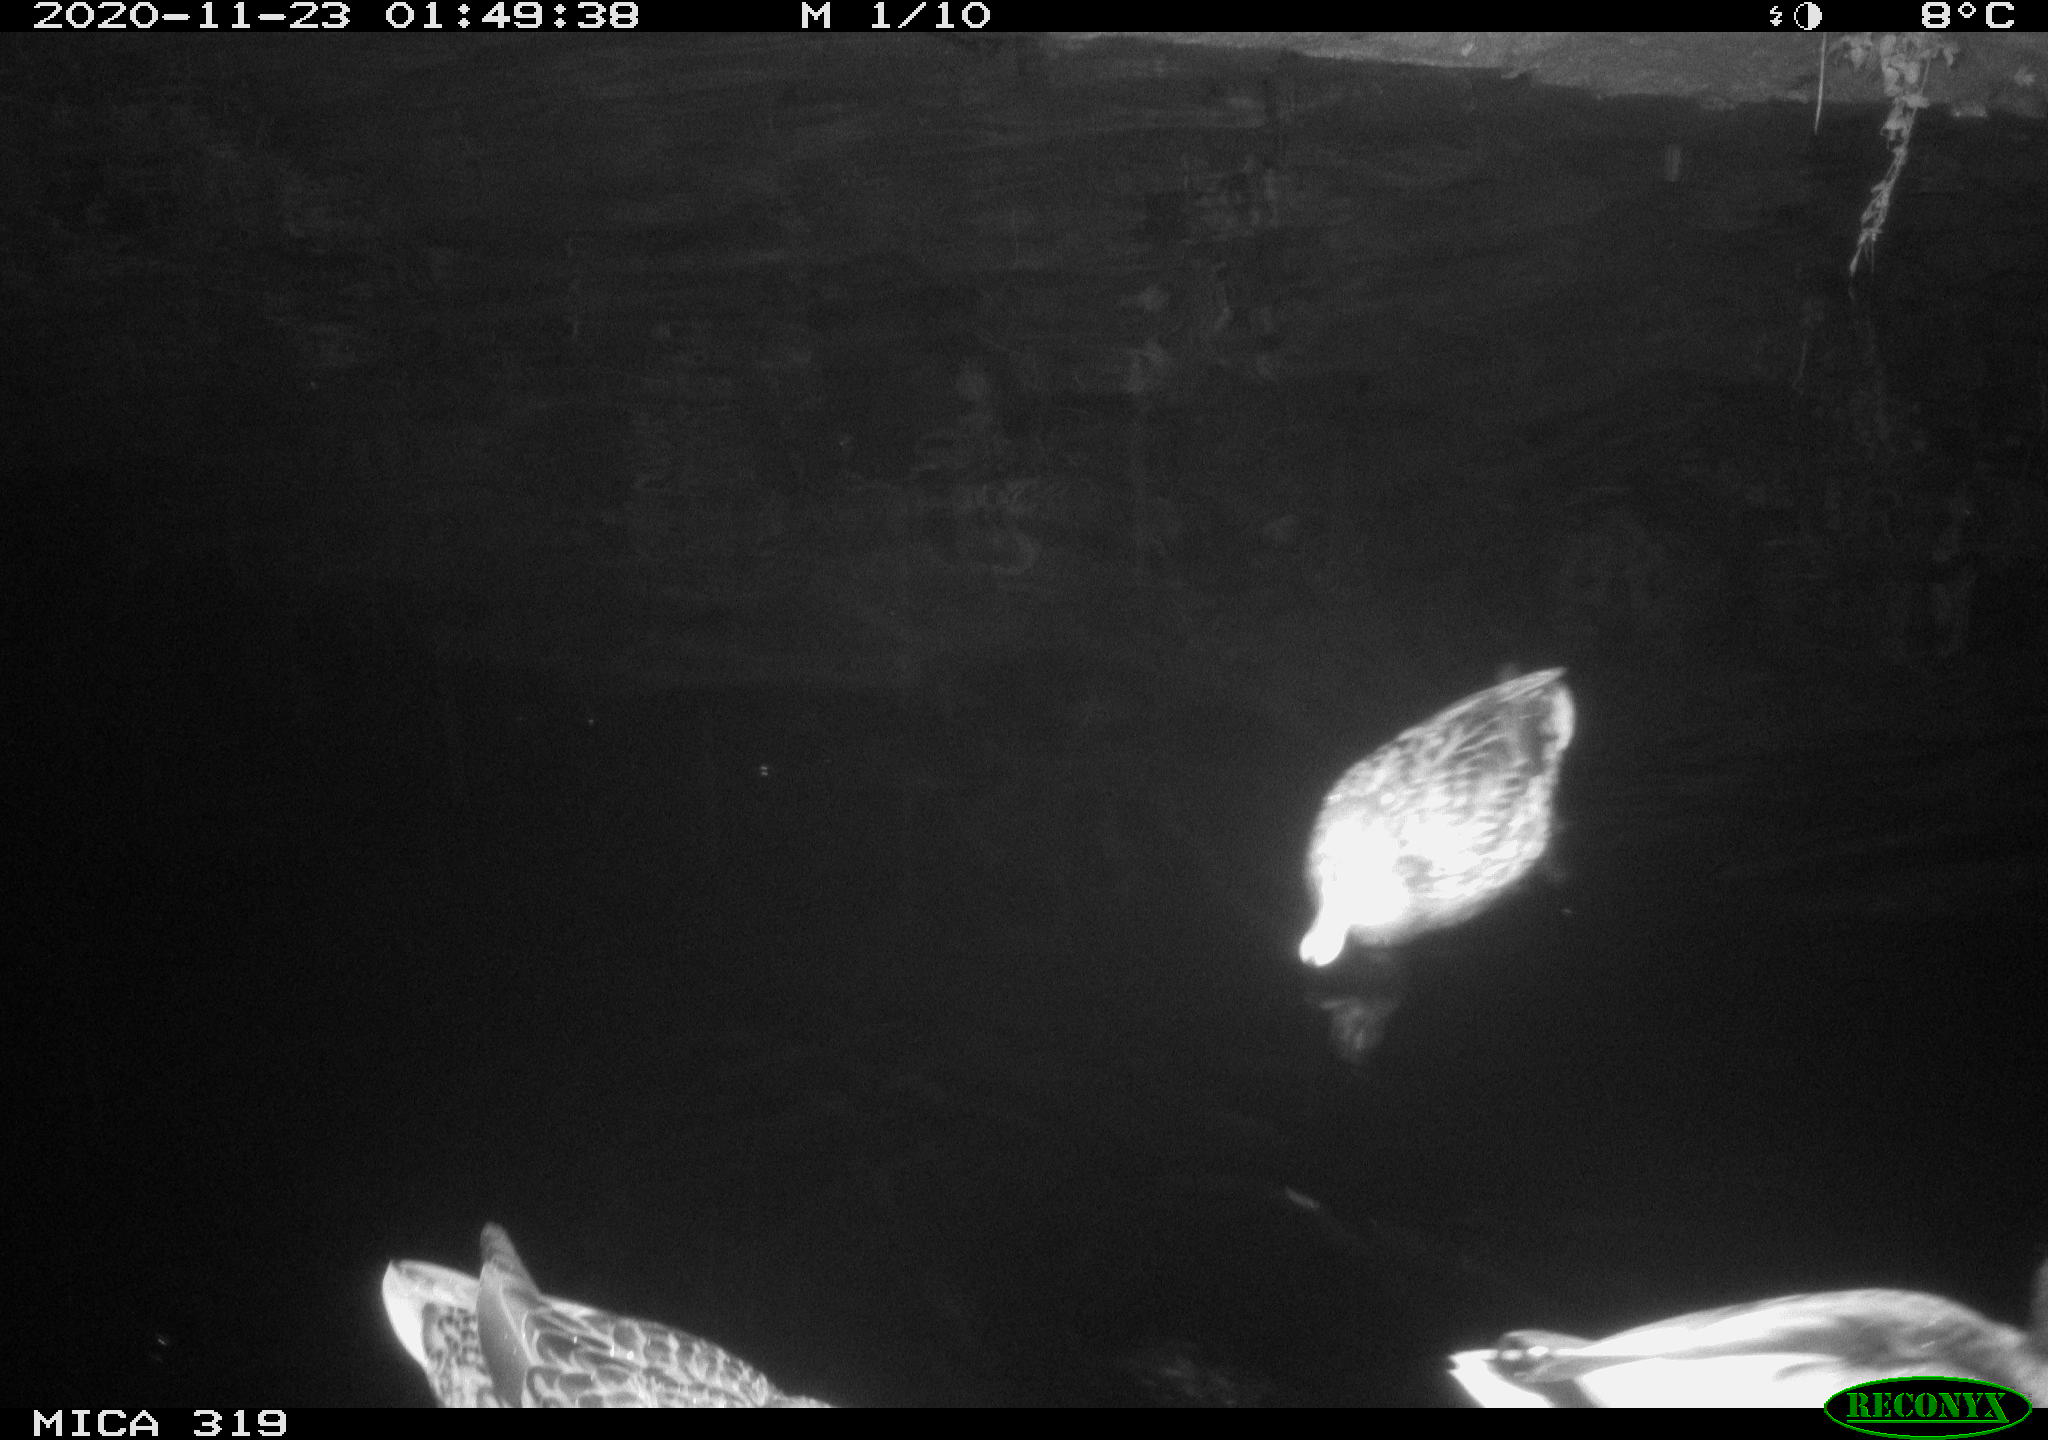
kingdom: Animalia
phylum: Chordata
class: Aves
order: Anseriformes
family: Anatidae
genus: Anas
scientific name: Anas platyrhynchos
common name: Mallard
